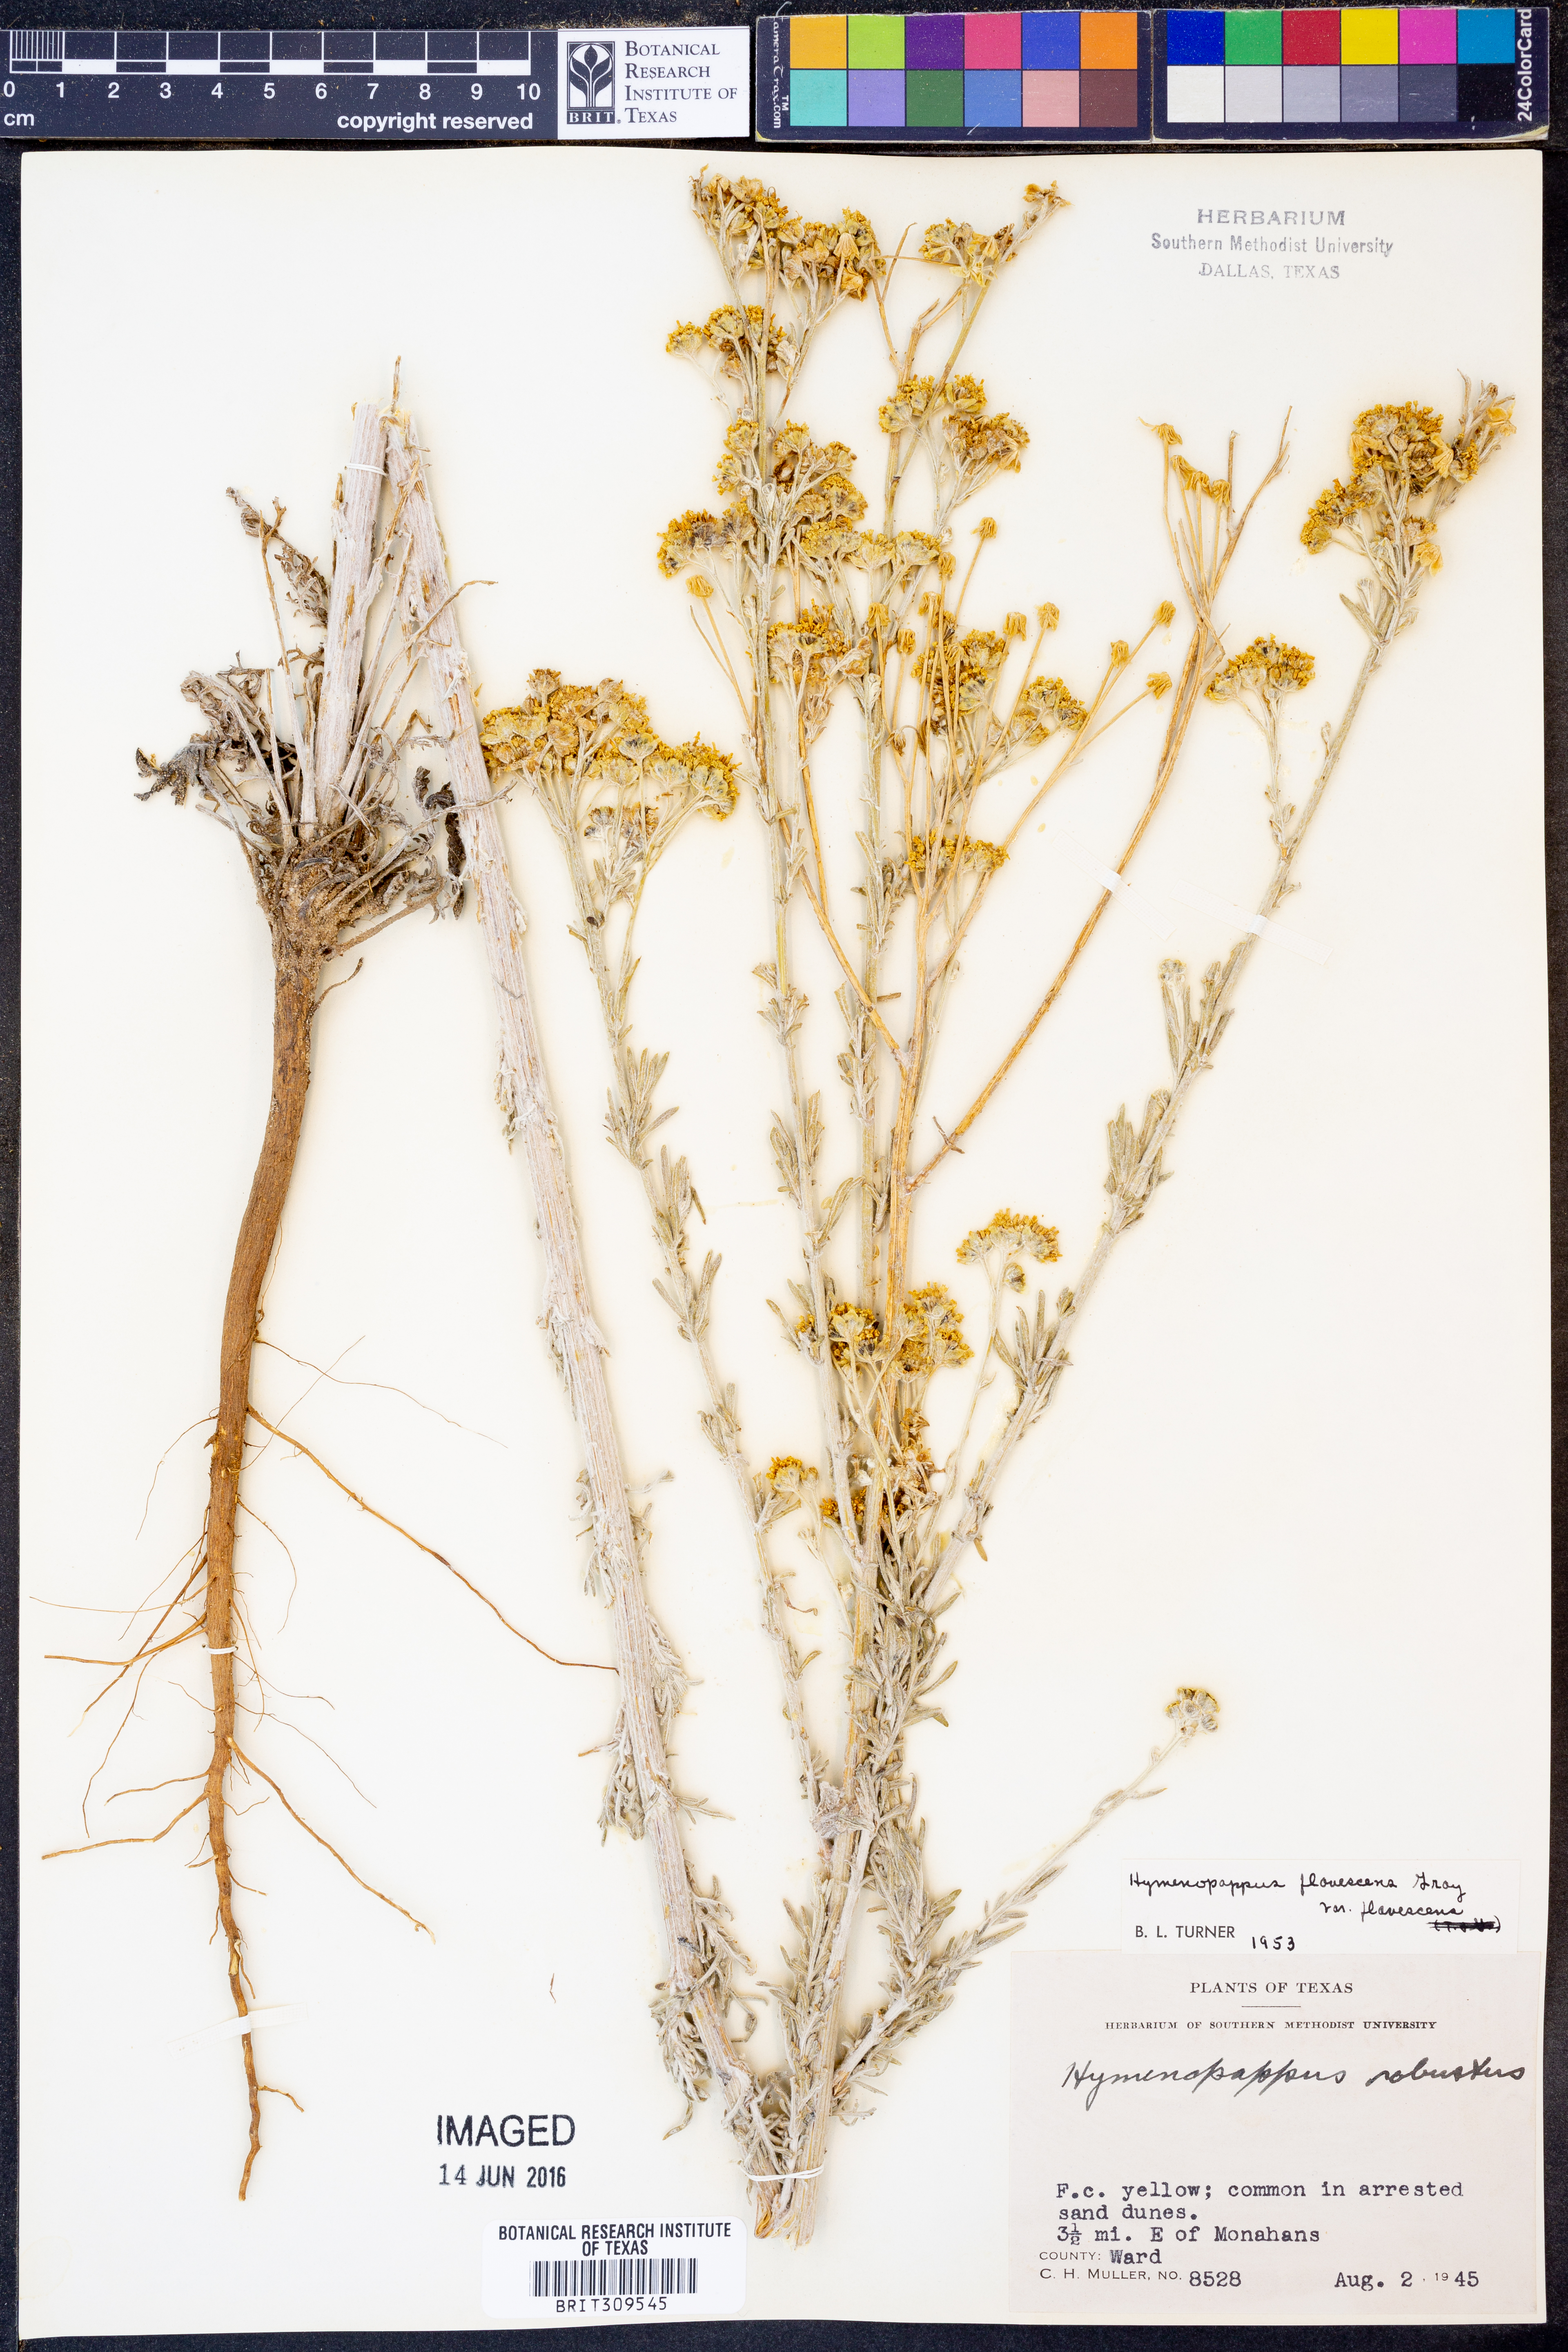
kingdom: Plantae
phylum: Tracheophyta
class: Magnoliopsida
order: Asterales
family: Asteraceae
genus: Hymenopappus
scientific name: Hymenopappus flavescens
